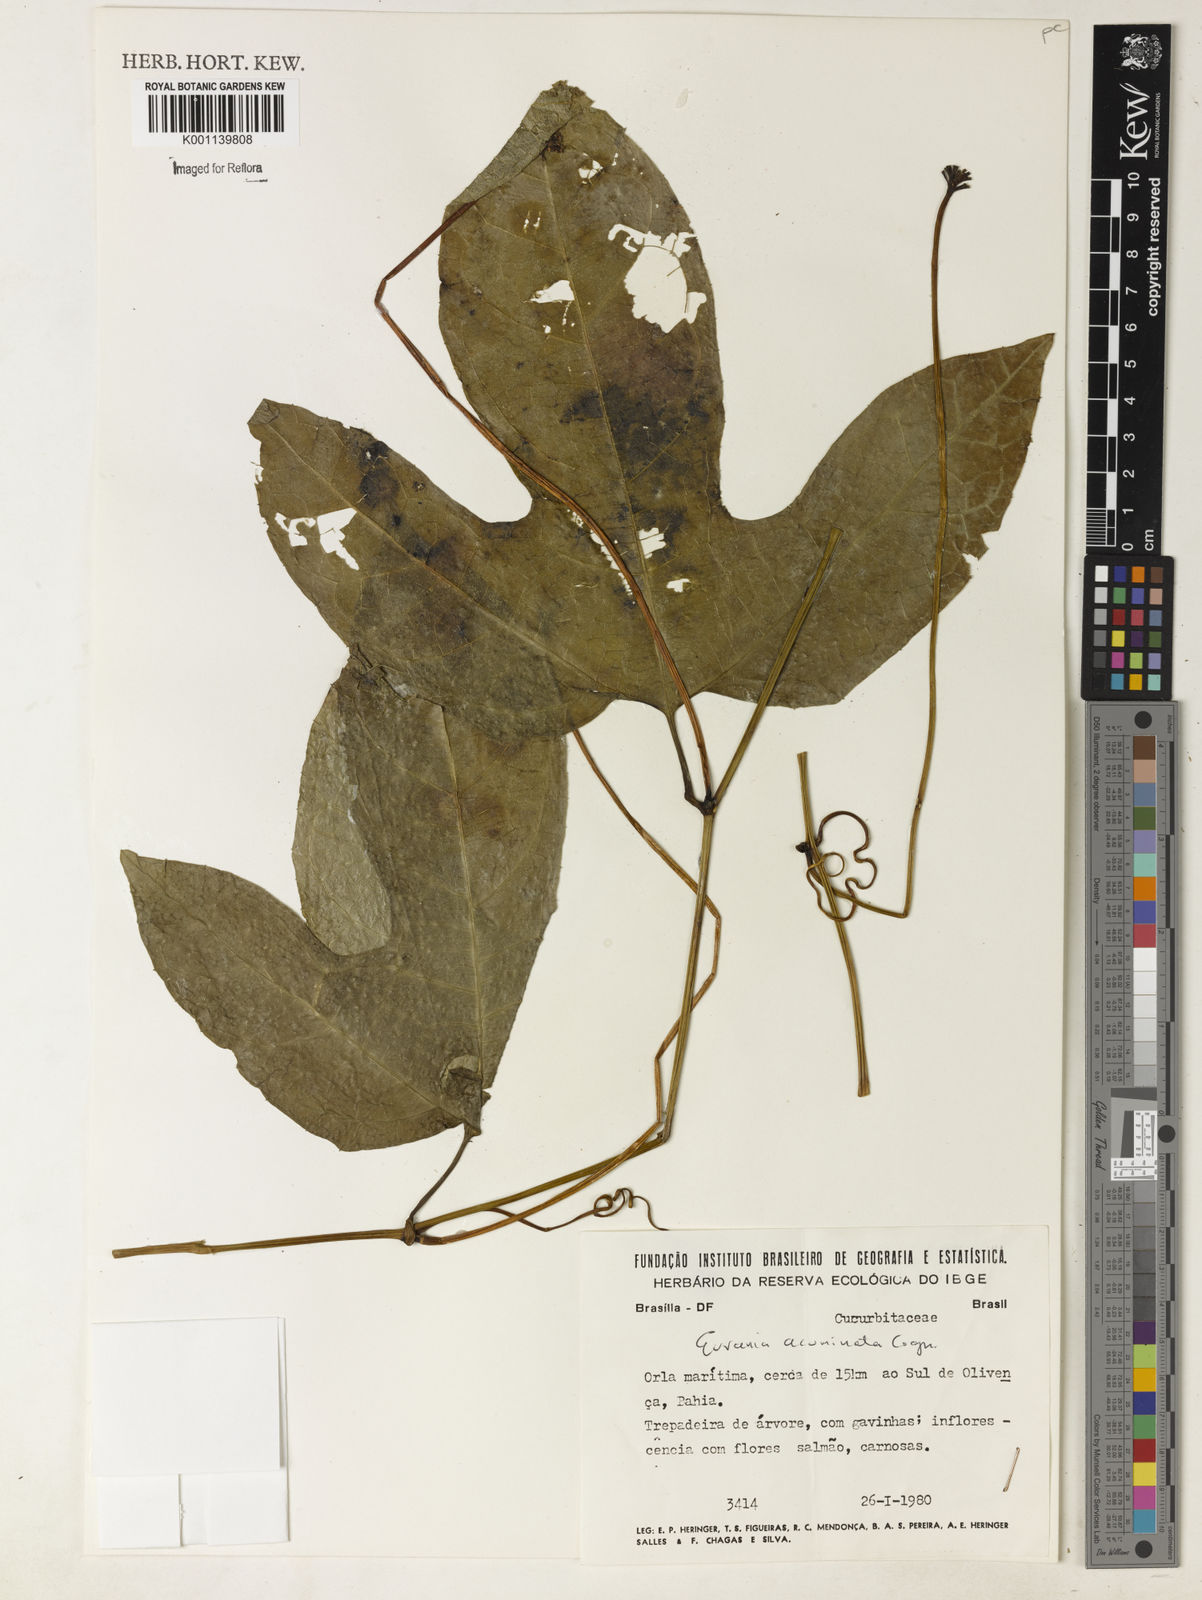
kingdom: Plantae
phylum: Tracheophyta
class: Magnoliopsida
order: Cucurbitales
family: Cucurbitaceae
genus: Gurania
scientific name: Gurania acuminata
